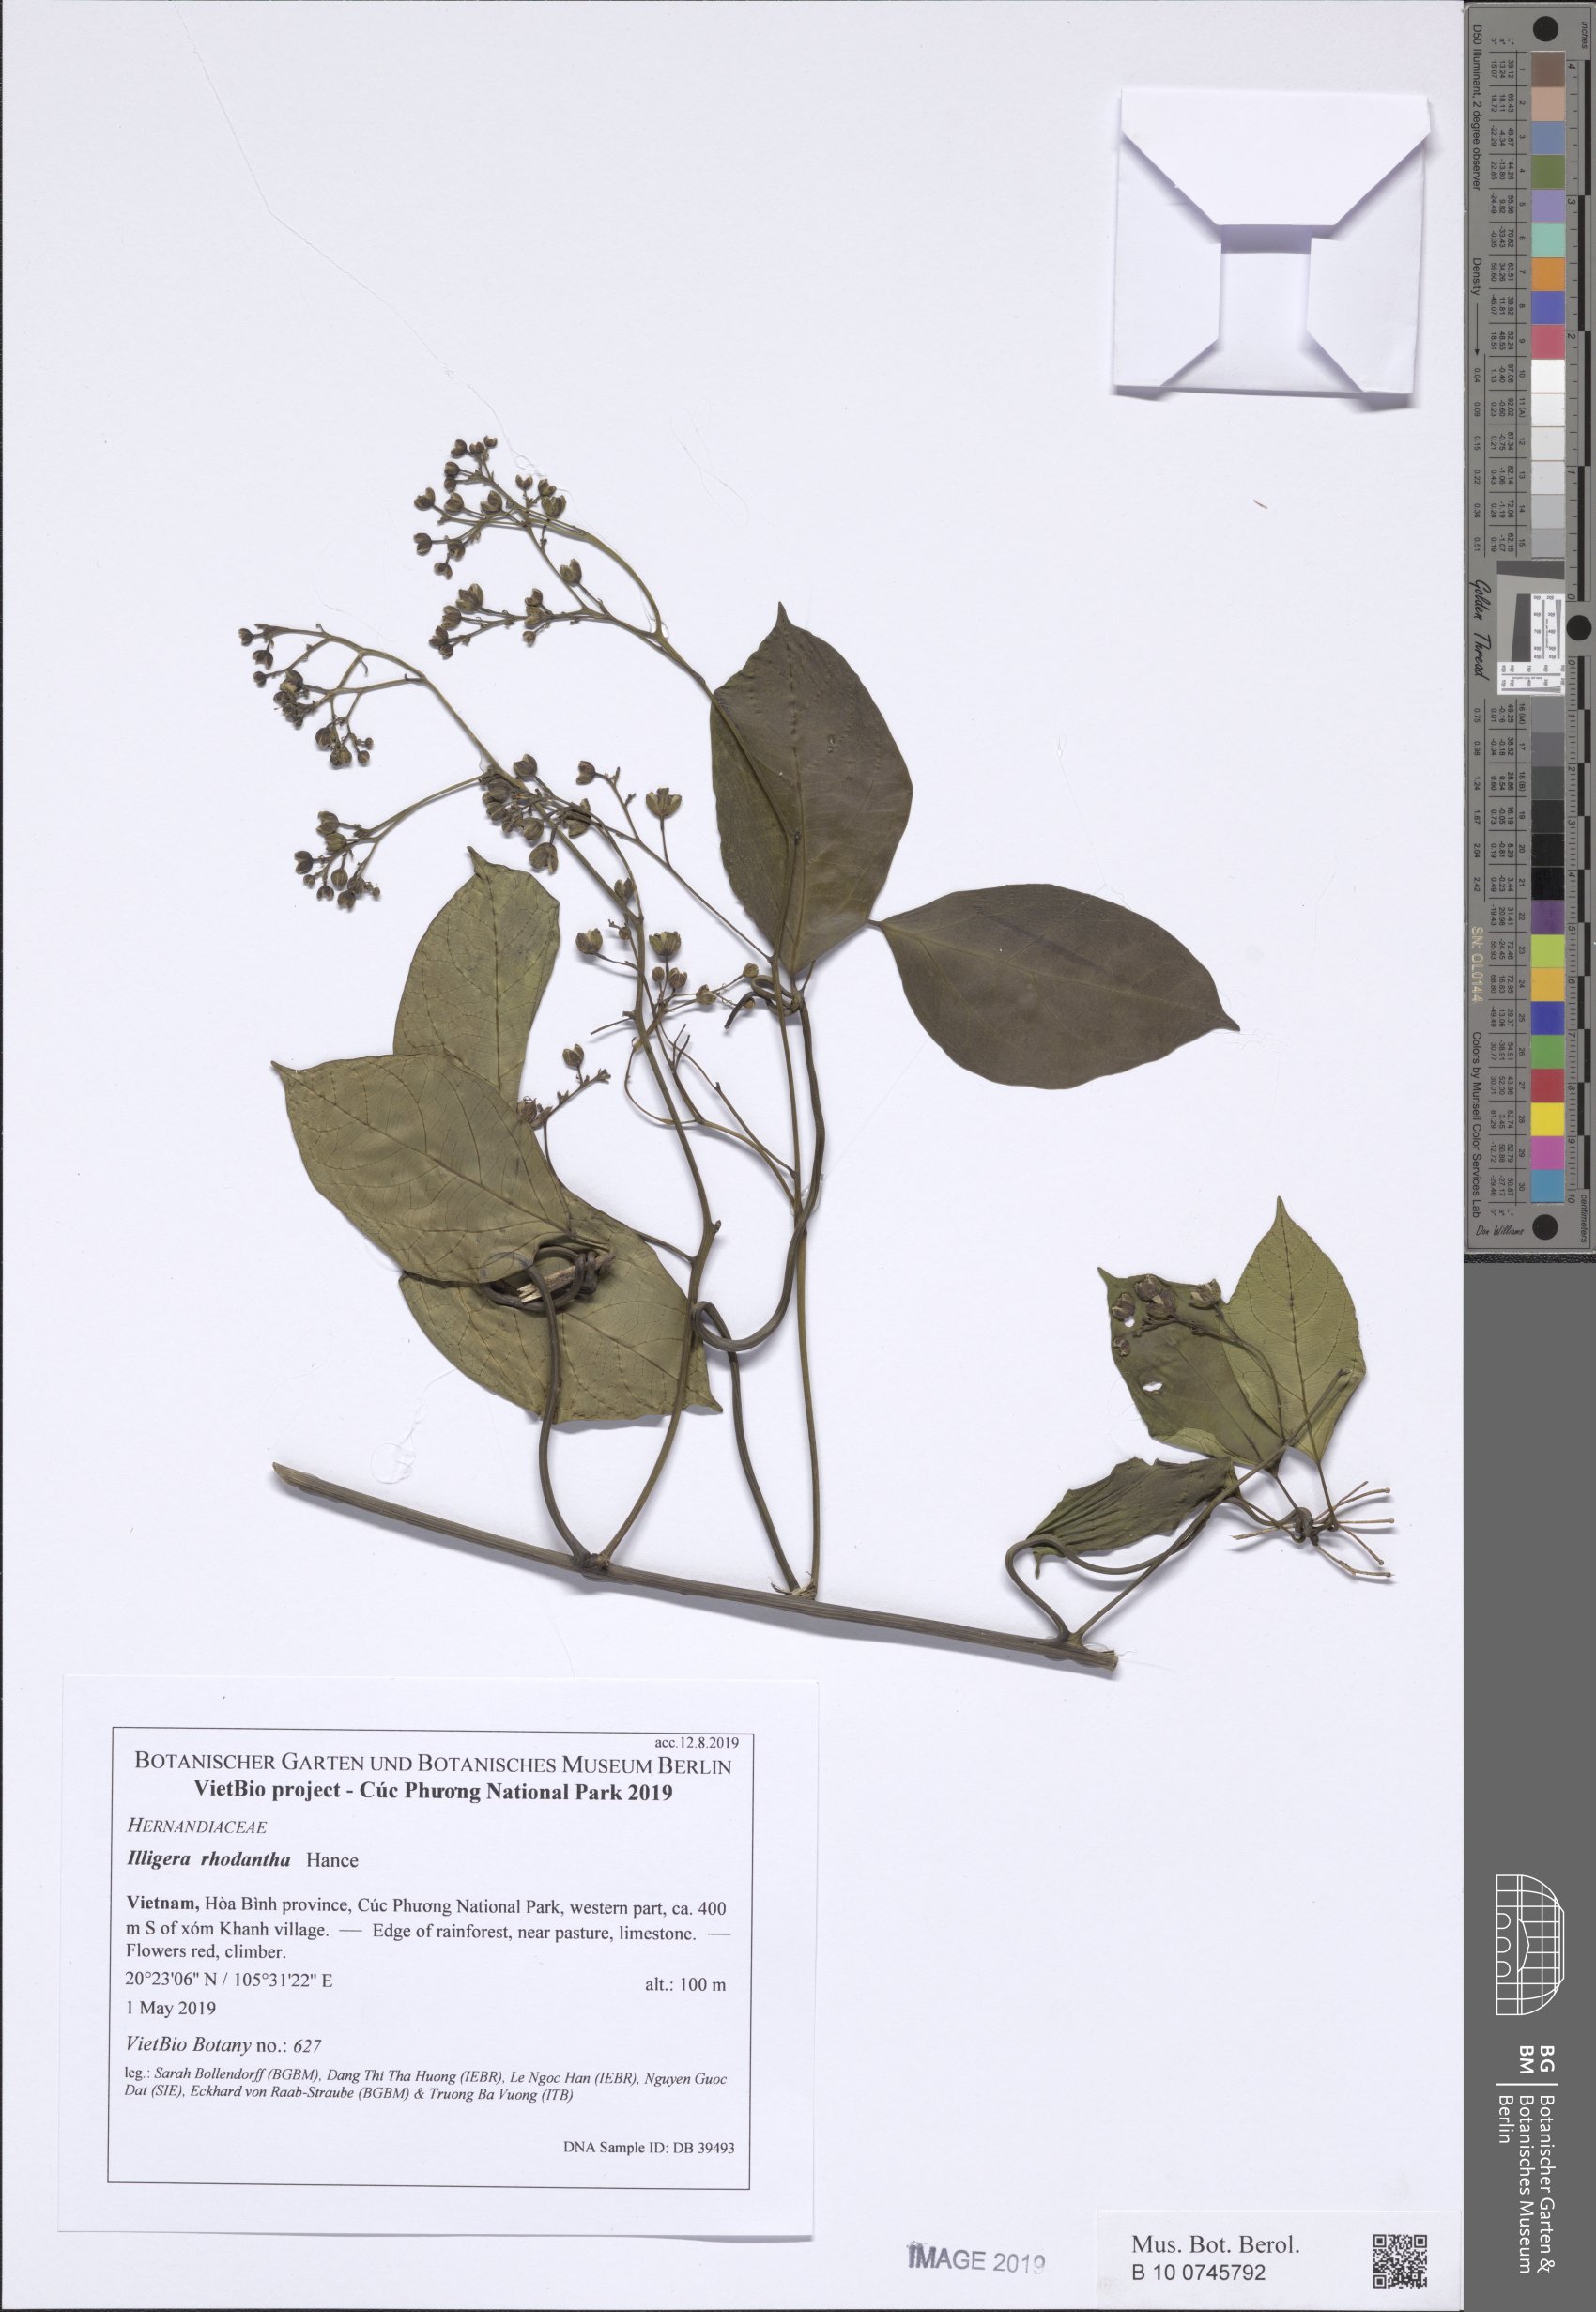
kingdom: Plantae
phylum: Tracheophyta
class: Magnoliopsida
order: Laurales
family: Hernandiaceae
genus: Illigera
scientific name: Illigera celebica
